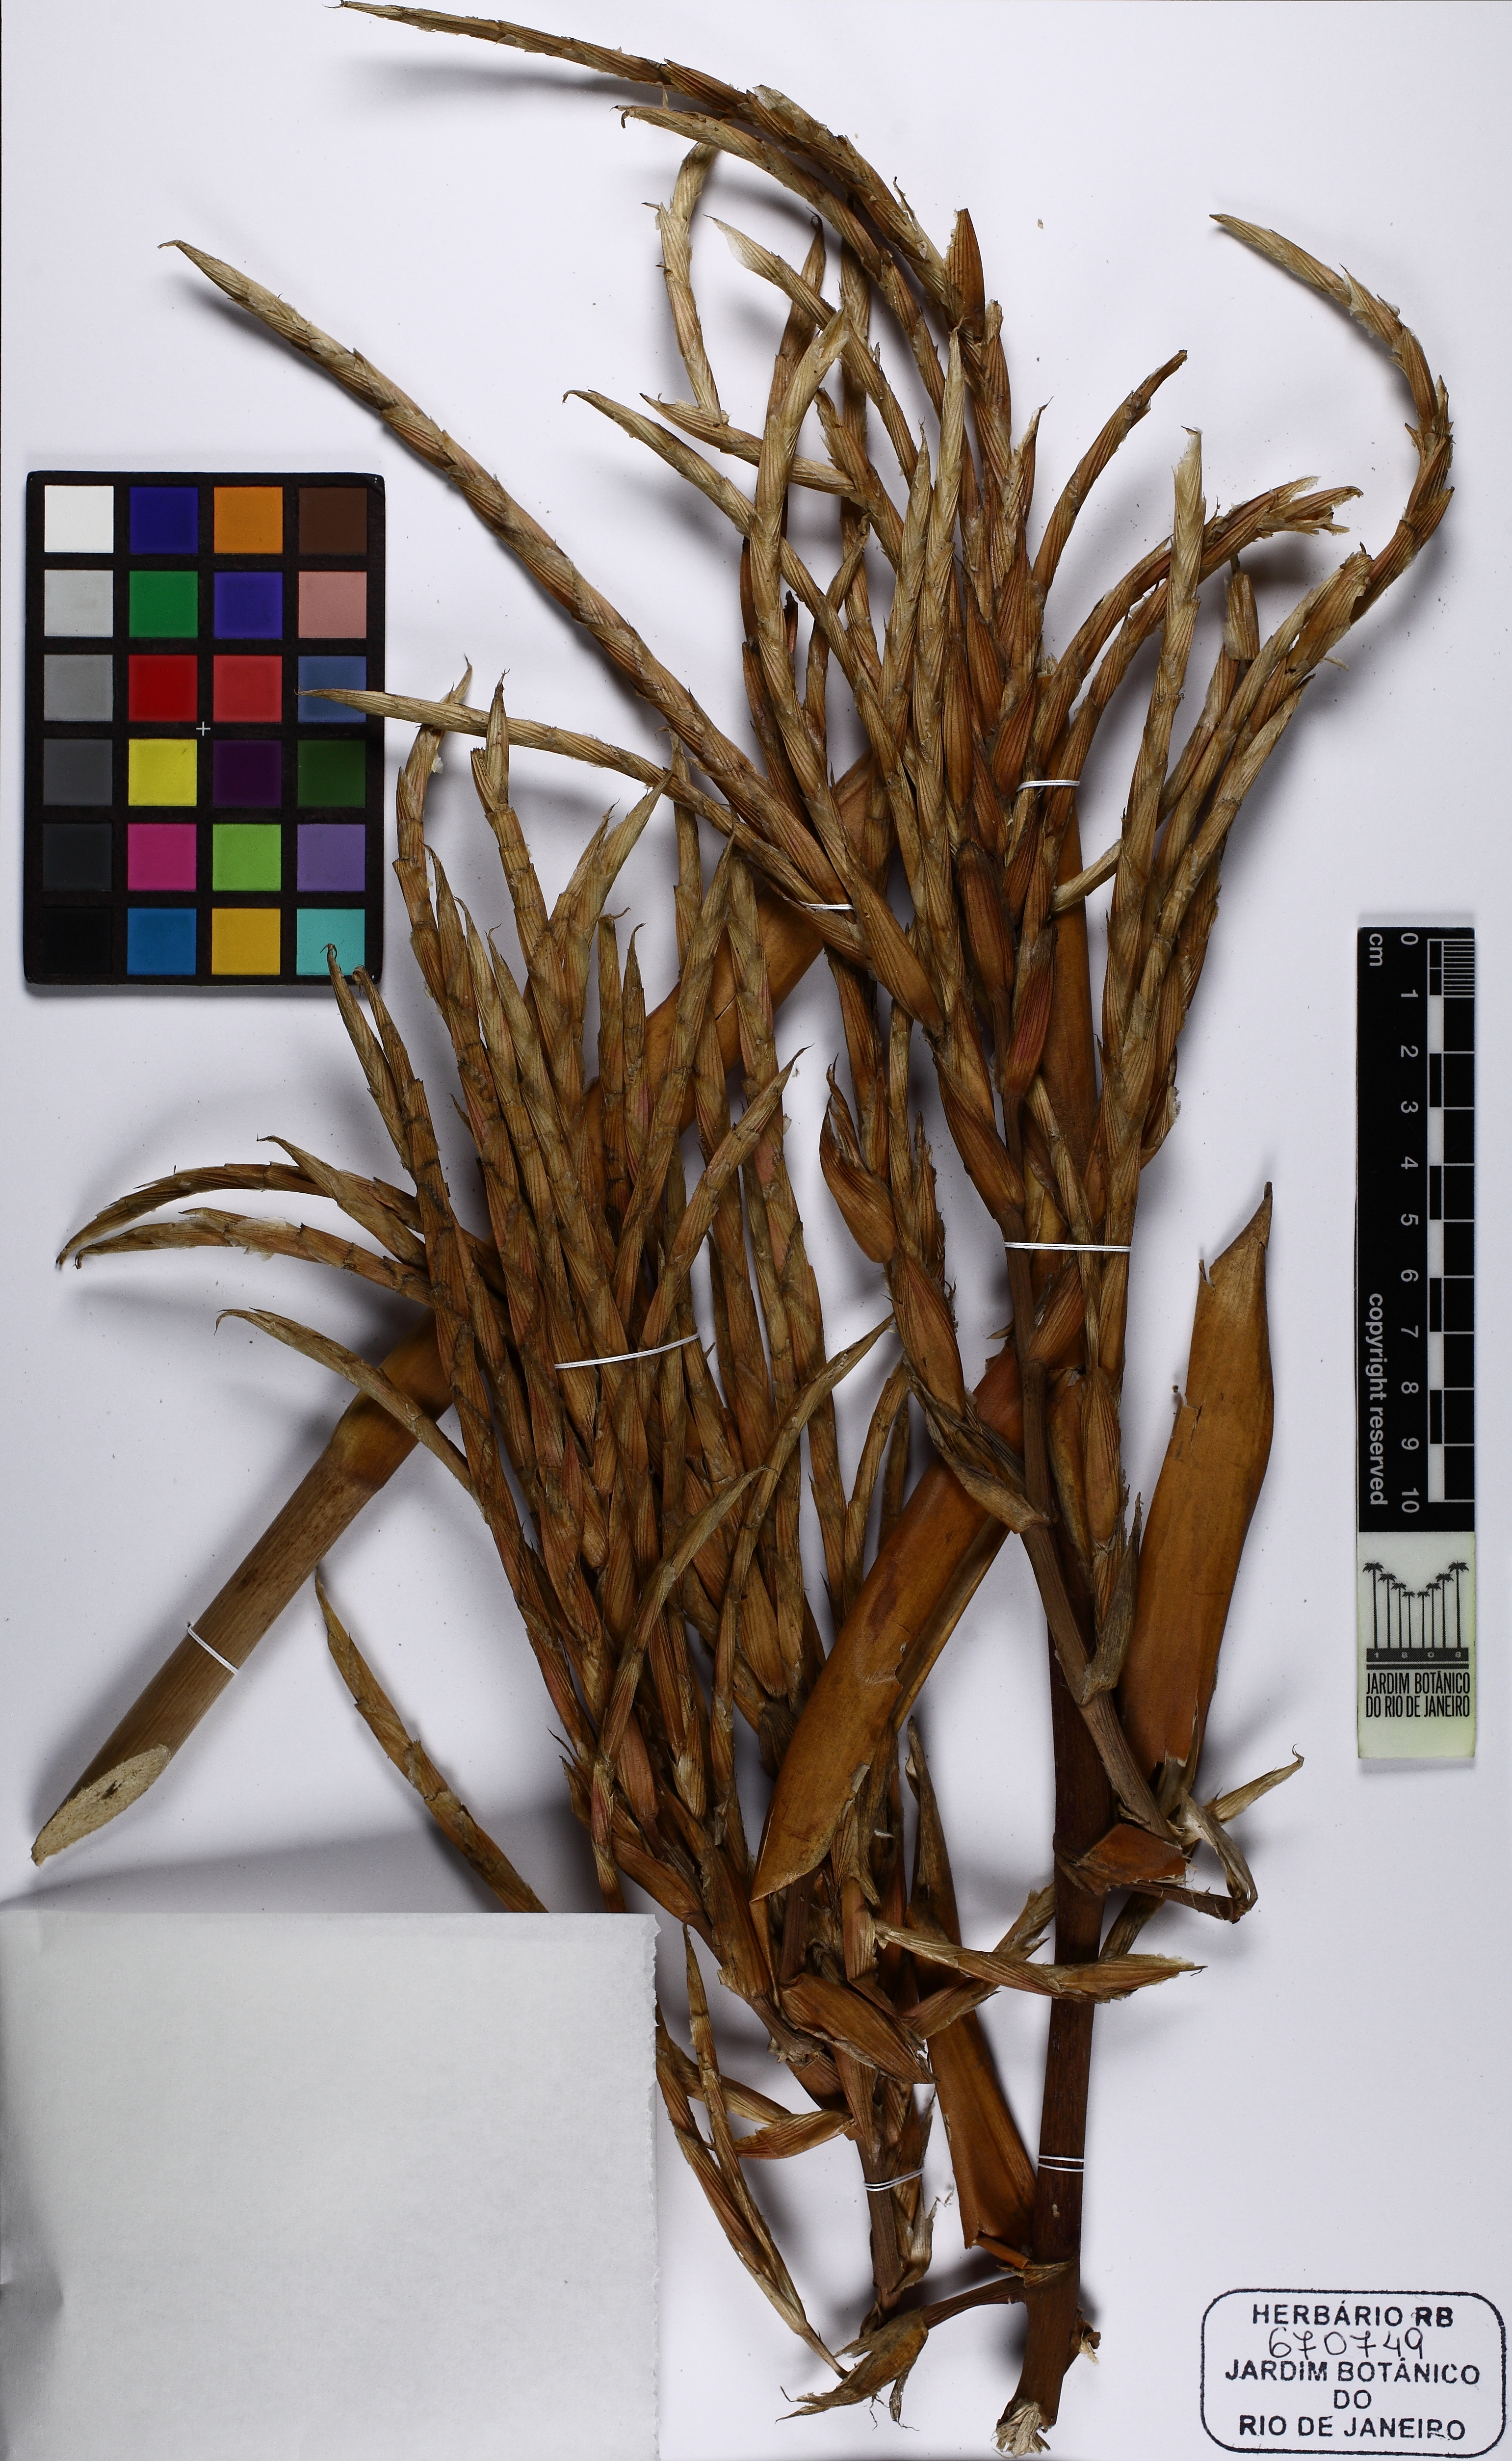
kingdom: Plantae
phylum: Tracheophyta
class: Liliopsida
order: Poales
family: Bromeliaceae
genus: Aechmea
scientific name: Aechmea blanchetiana
